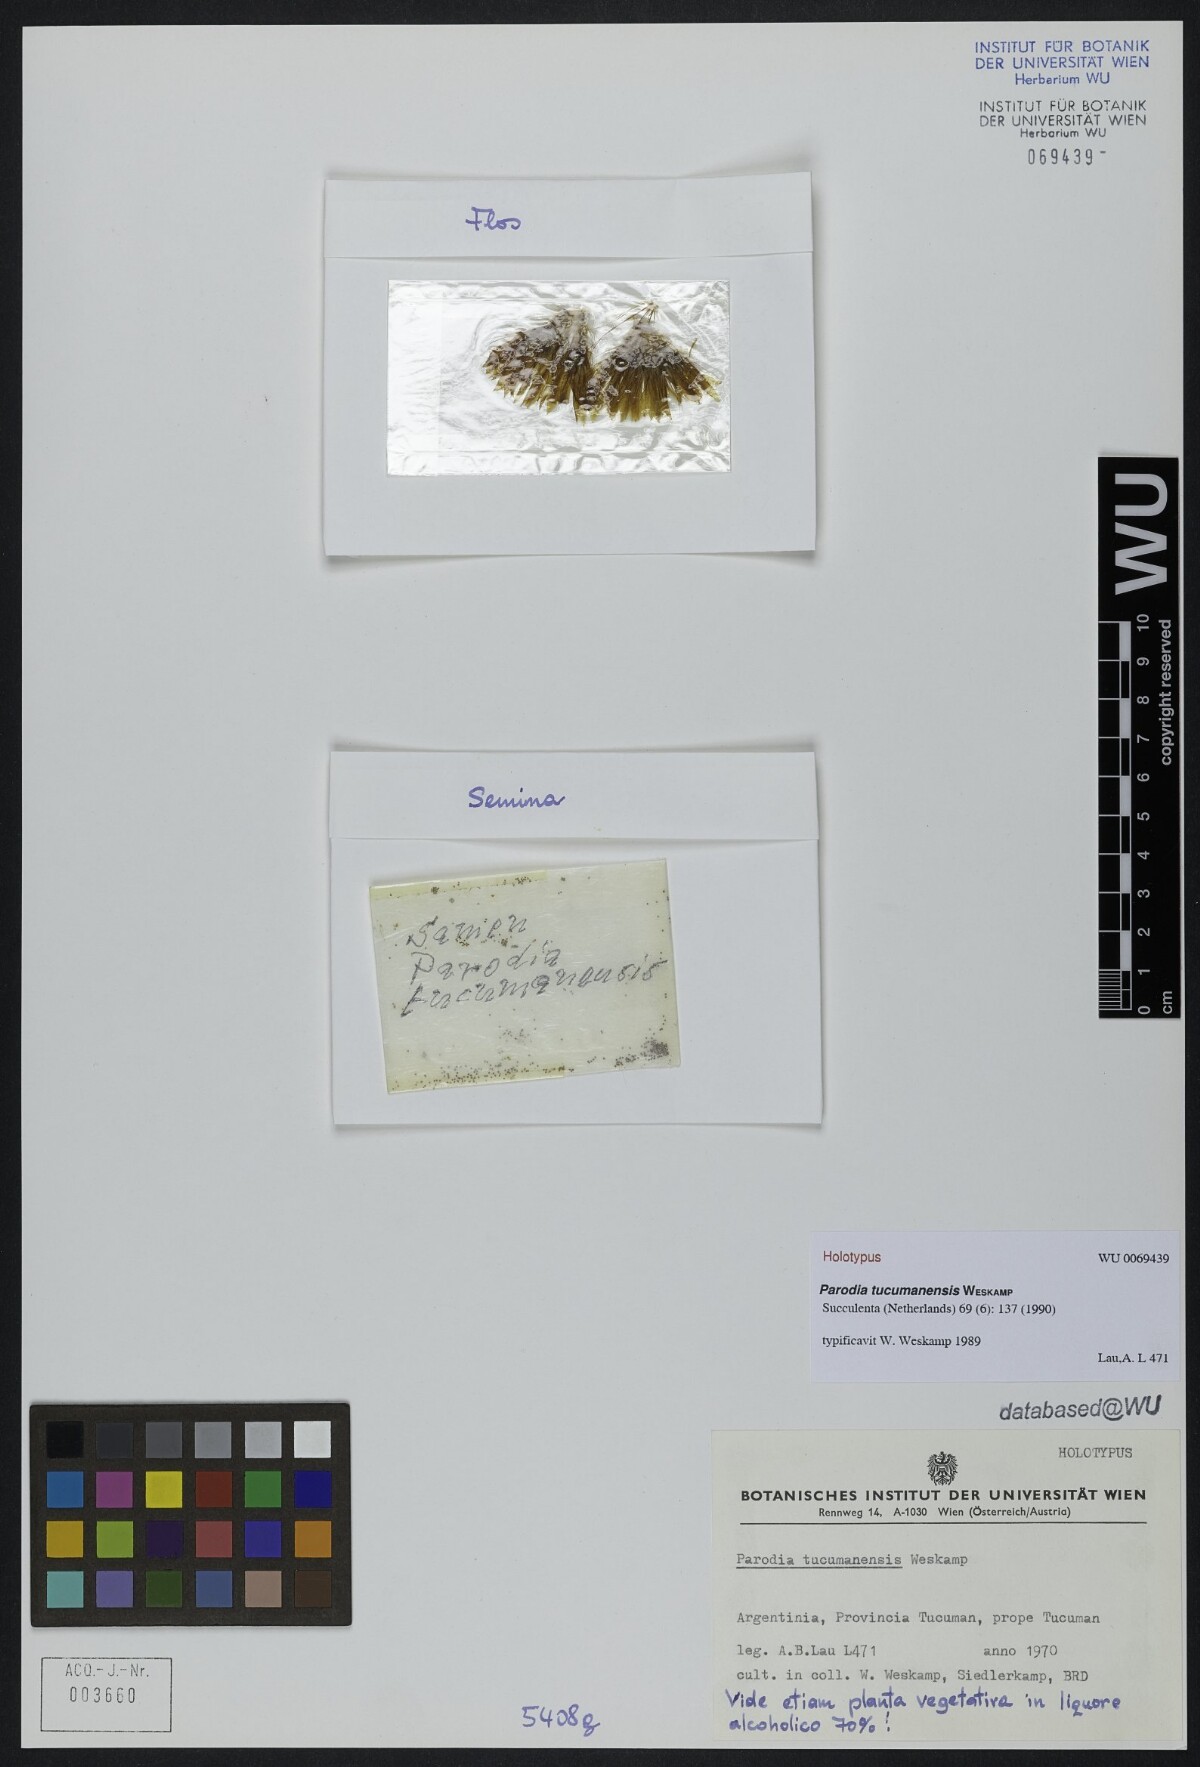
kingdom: Plantae
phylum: Tracheophyta
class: Magnoliopsida
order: Caryophyllales
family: Cactaceae
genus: Parodia
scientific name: Parodia microsperma
